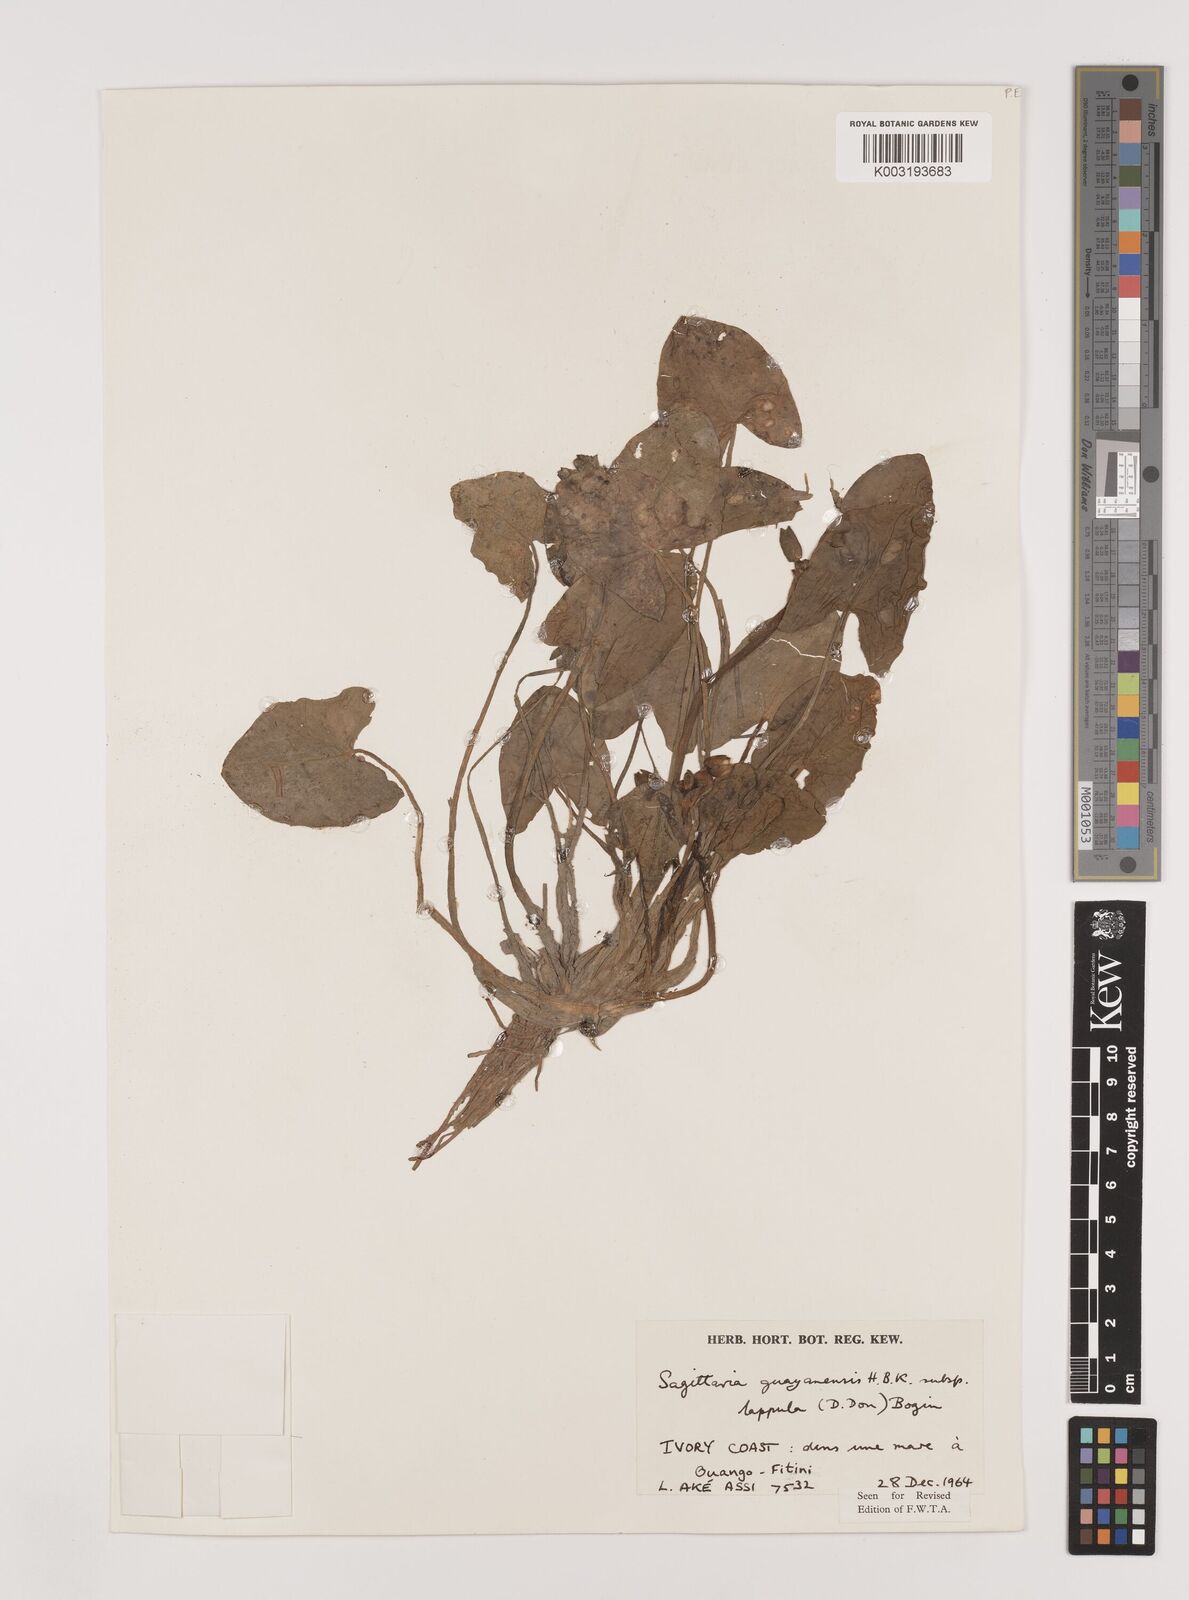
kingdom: Plantae
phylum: Tracheophyta
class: Liliopsida
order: Alismatales
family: Alismataceae
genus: Sagittaria
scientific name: Sagittaria guayanensis
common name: Guyanese arrowhead
